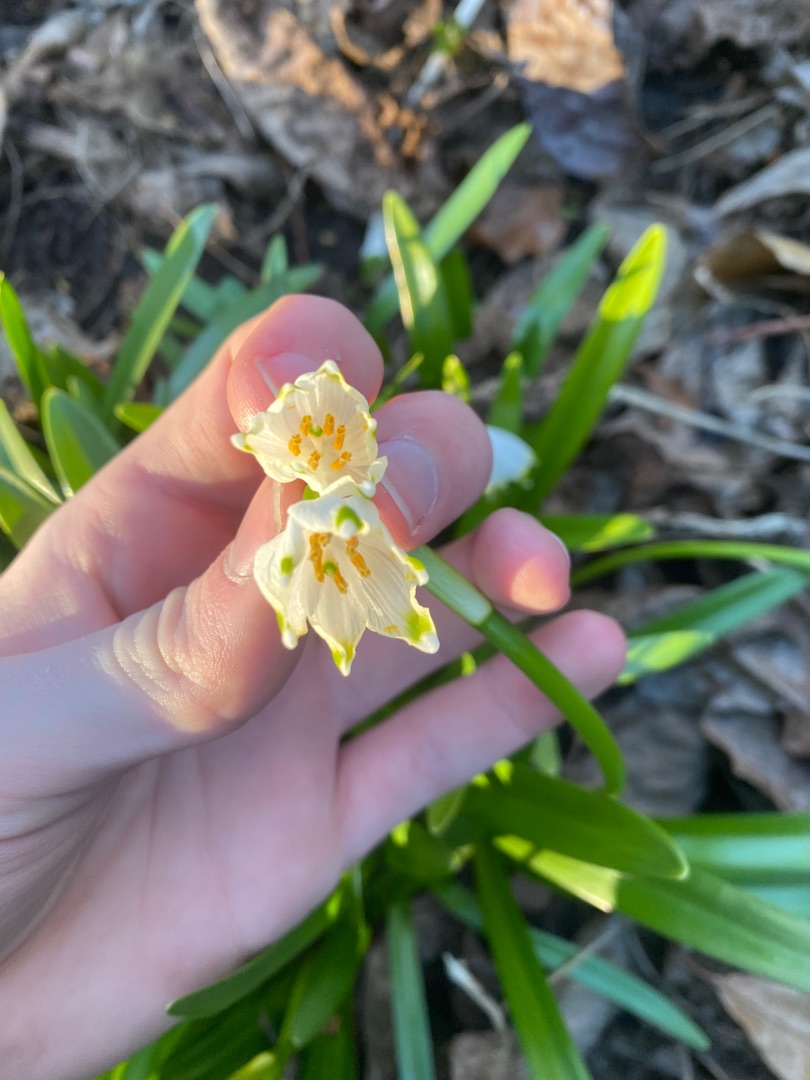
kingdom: Plantae
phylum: Tracheophyta
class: Liliopsida
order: Asparagales
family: Amaryllidaceae
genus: Leucojum
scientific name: Leucojum vernum
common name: Dorthealilje
